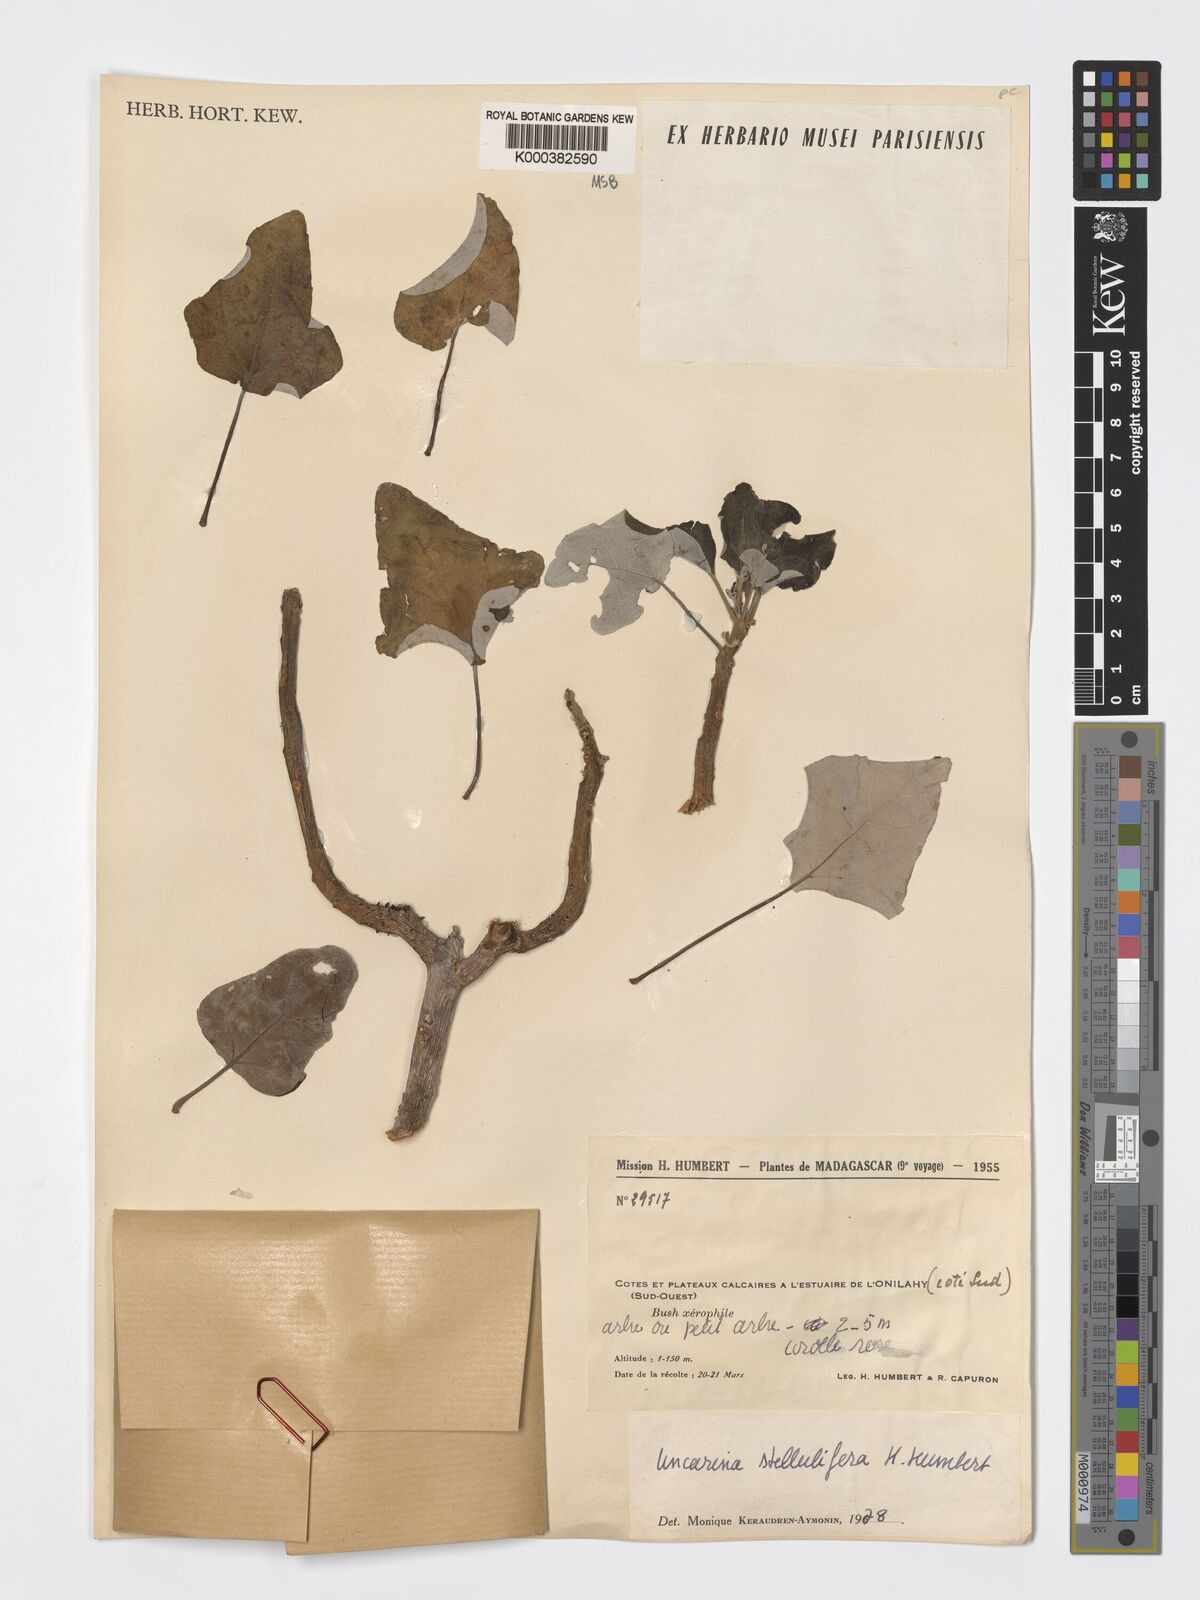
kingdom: Plantae
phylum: Tracheophyta
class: Magnoliopsida
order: Lamiales
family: Pedaliaceae
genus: Uncarina
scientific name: Uncarina stellulifera
